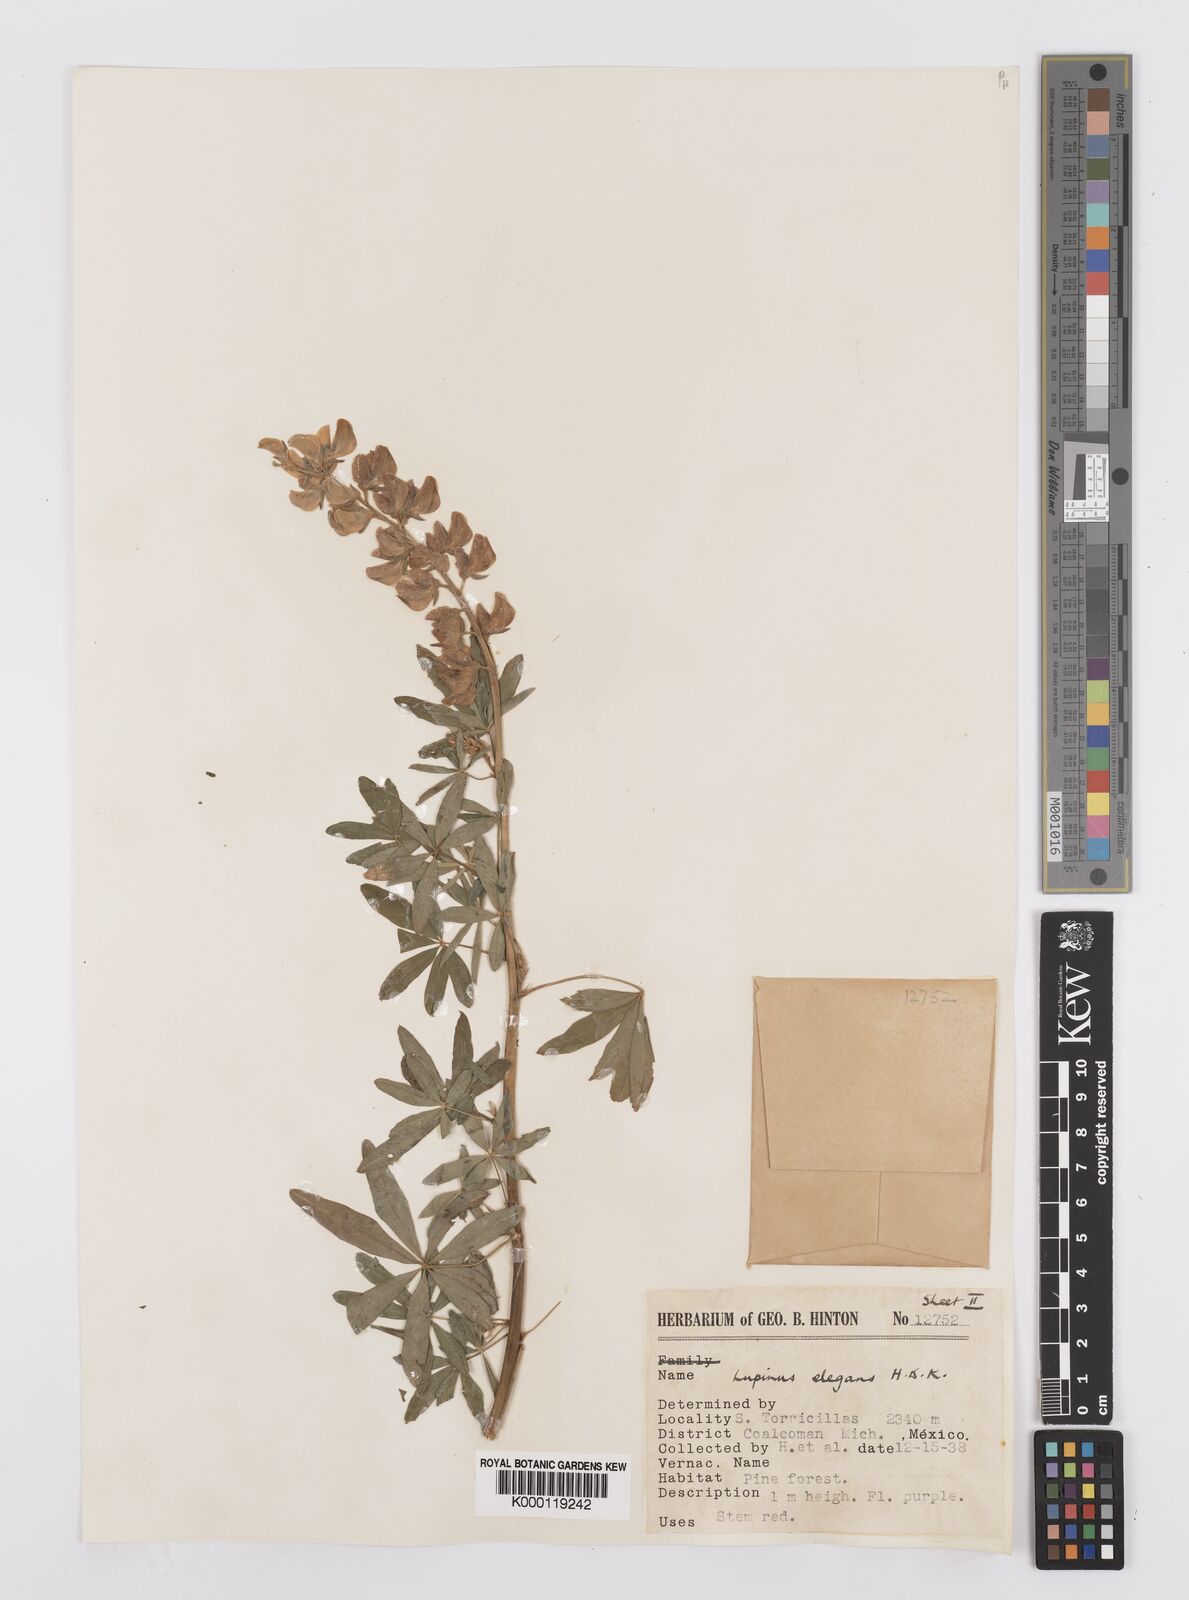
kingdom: Plantae
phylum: Tracheophyta
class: Magnoliopsida
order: Fabales
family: Fabaceae
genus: Lupinus
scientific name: Lupinus elegans
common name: Mexican lupine
